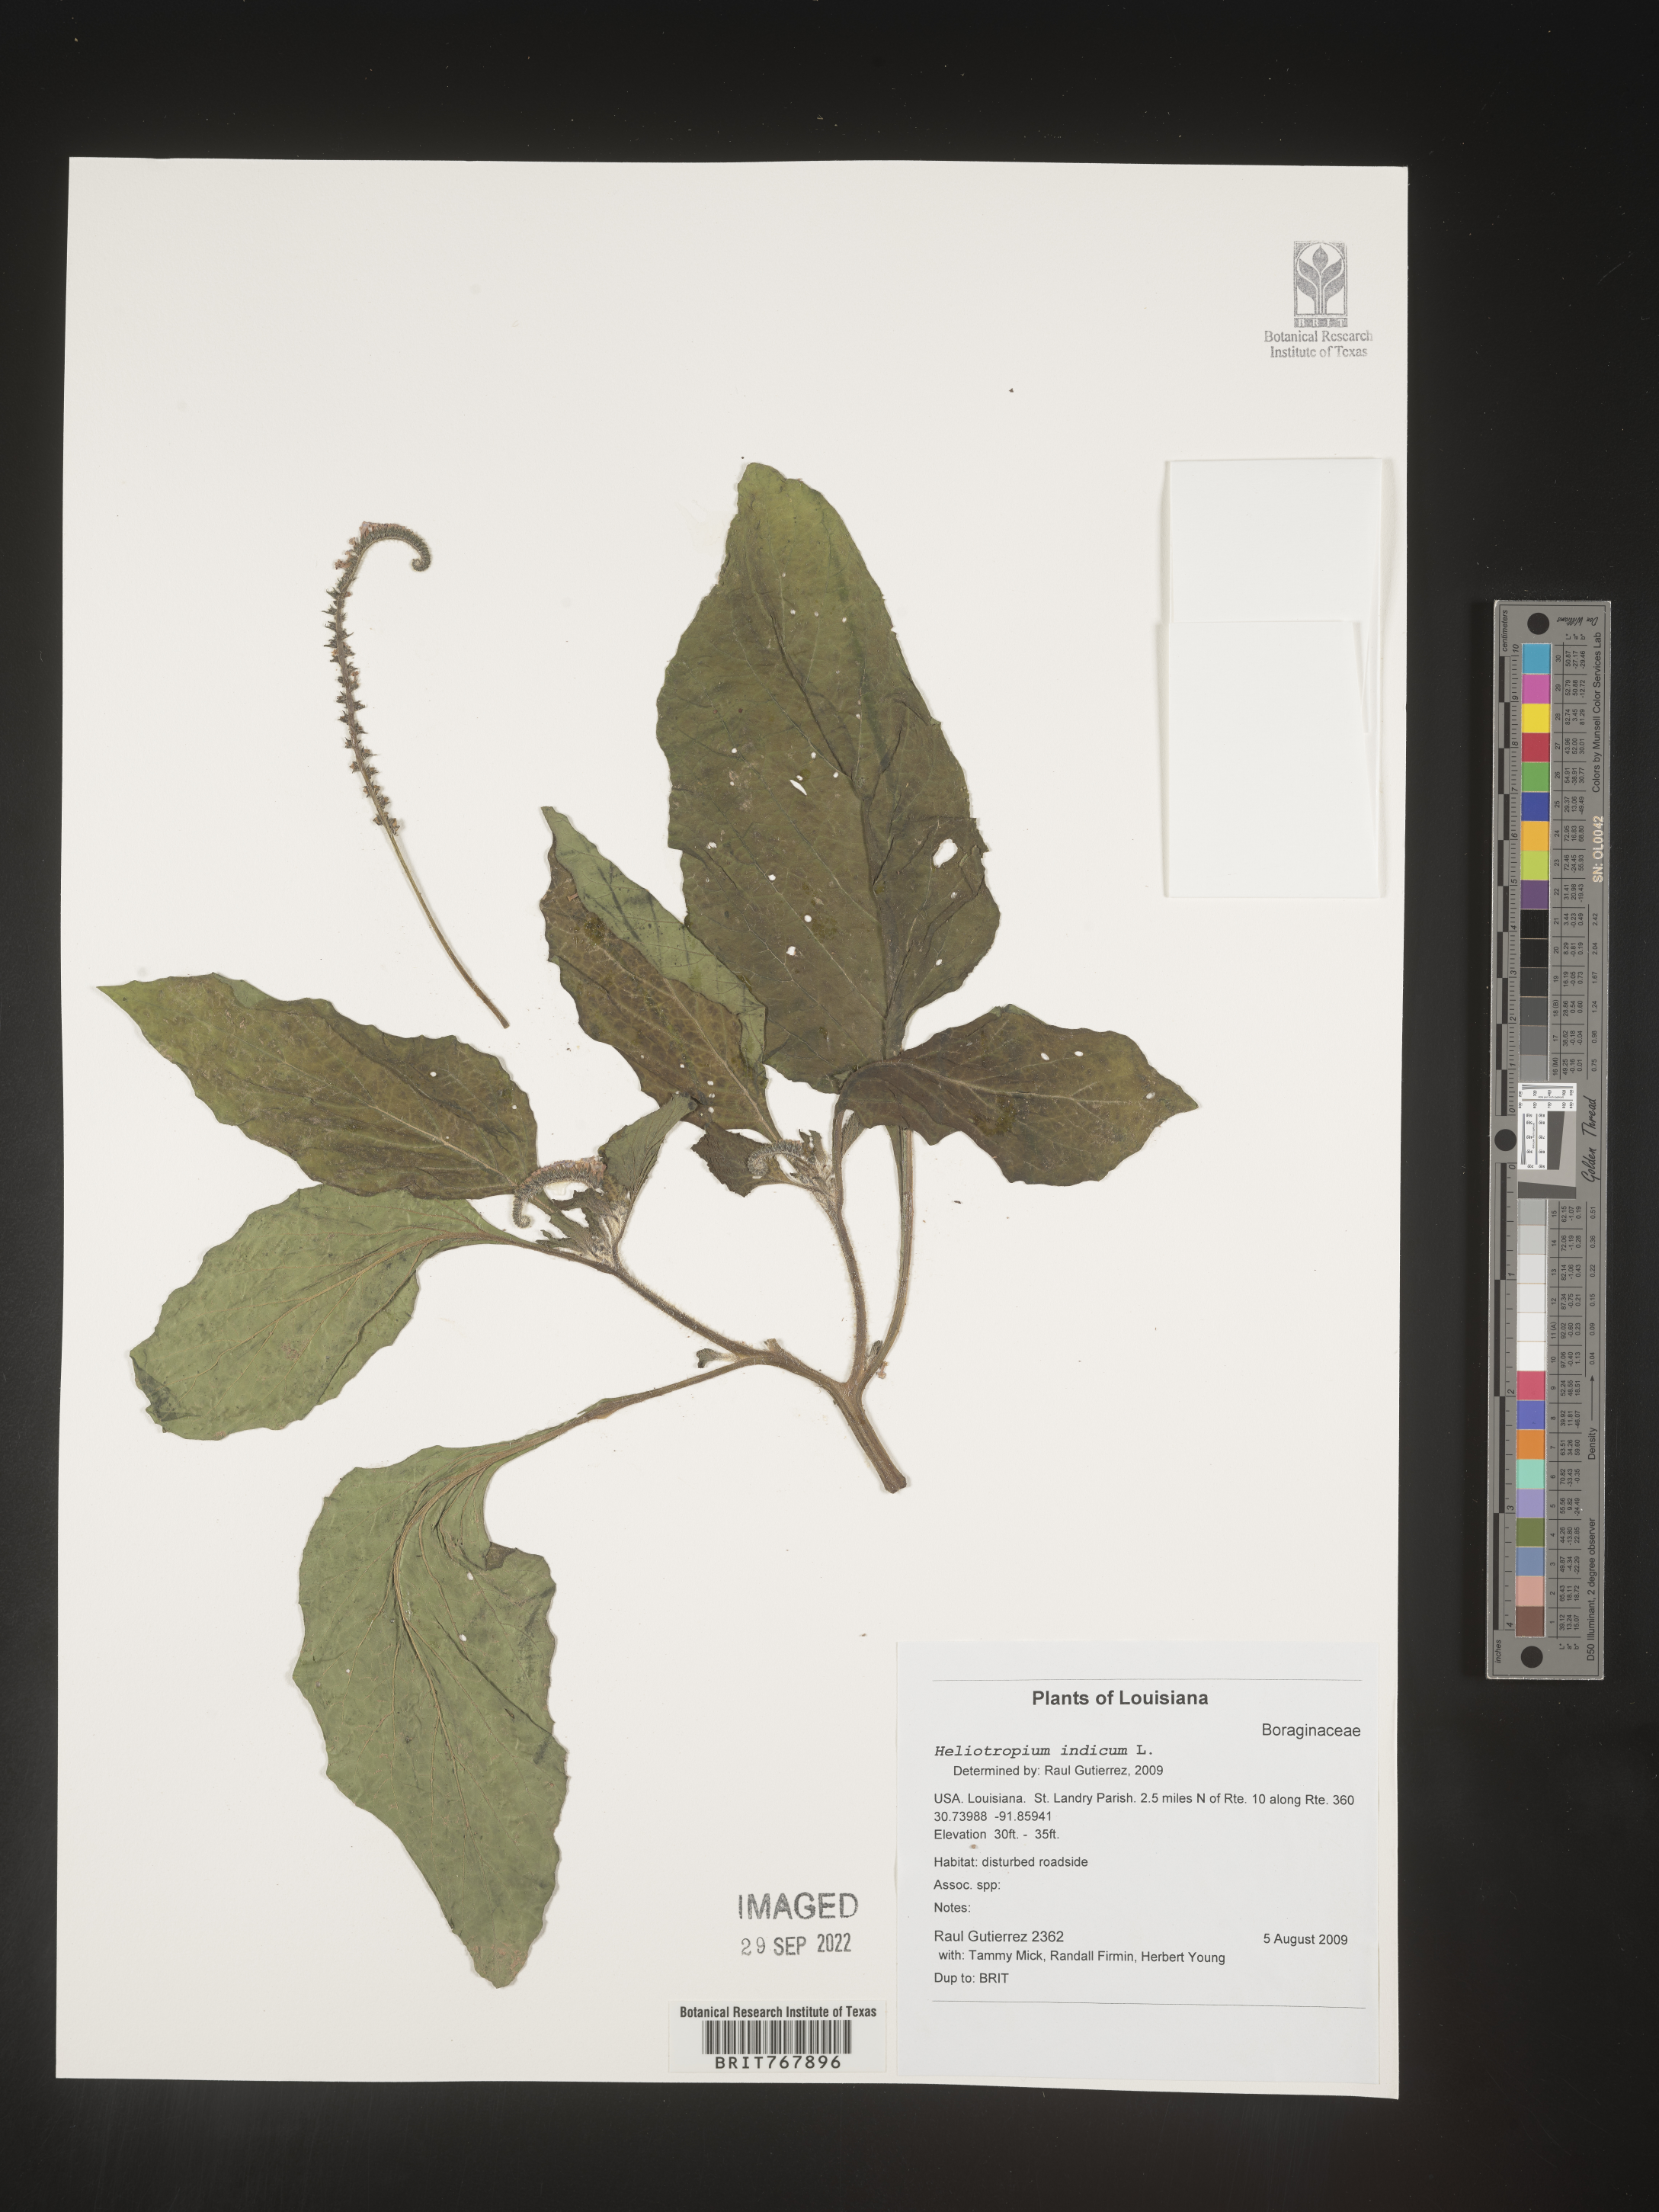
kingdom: Plantae
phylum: Tracheophyta
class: Magnoliopsida
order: Boraginales
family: Heliotropiaceae
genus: Heliotropium
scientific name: Heliotropium indicum
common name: Indian heliotrope
